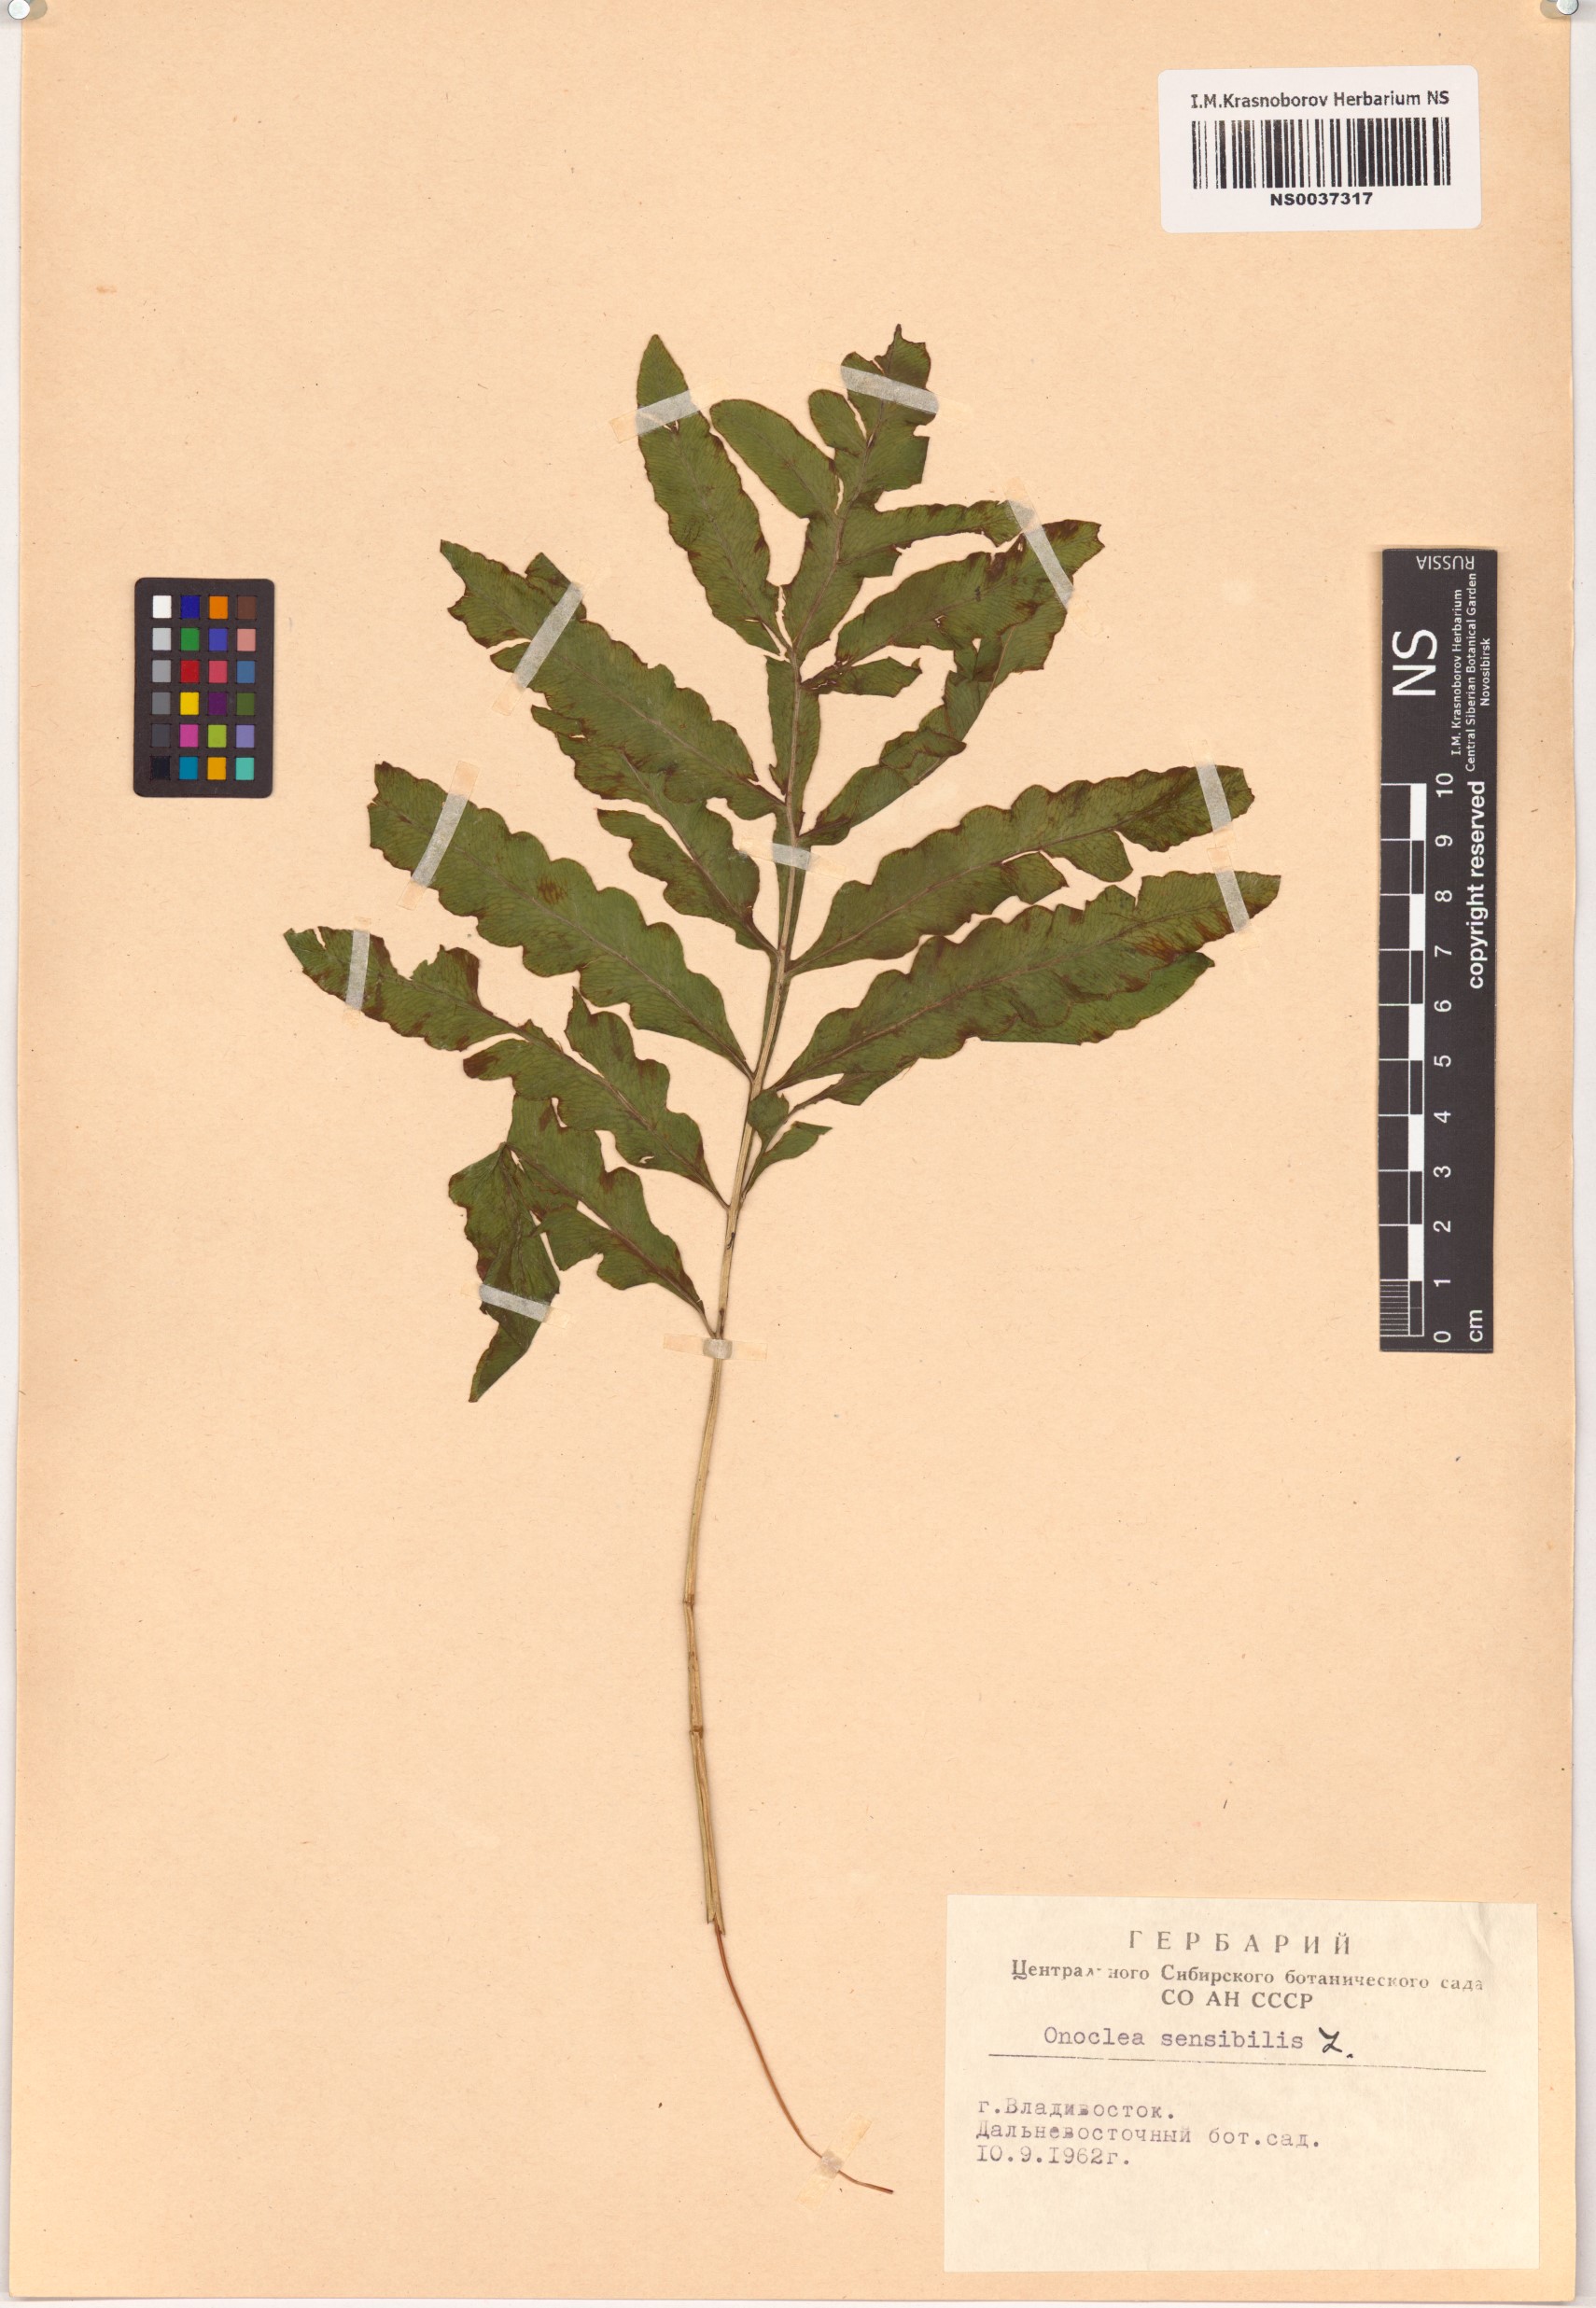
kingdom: Plantae
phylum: Tracheophyta
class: Polypodiopsida
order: Polypodiales
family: Onocleaceae
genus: Onoclea
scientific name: Onoclea sensibilis
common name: Sensitive fern
